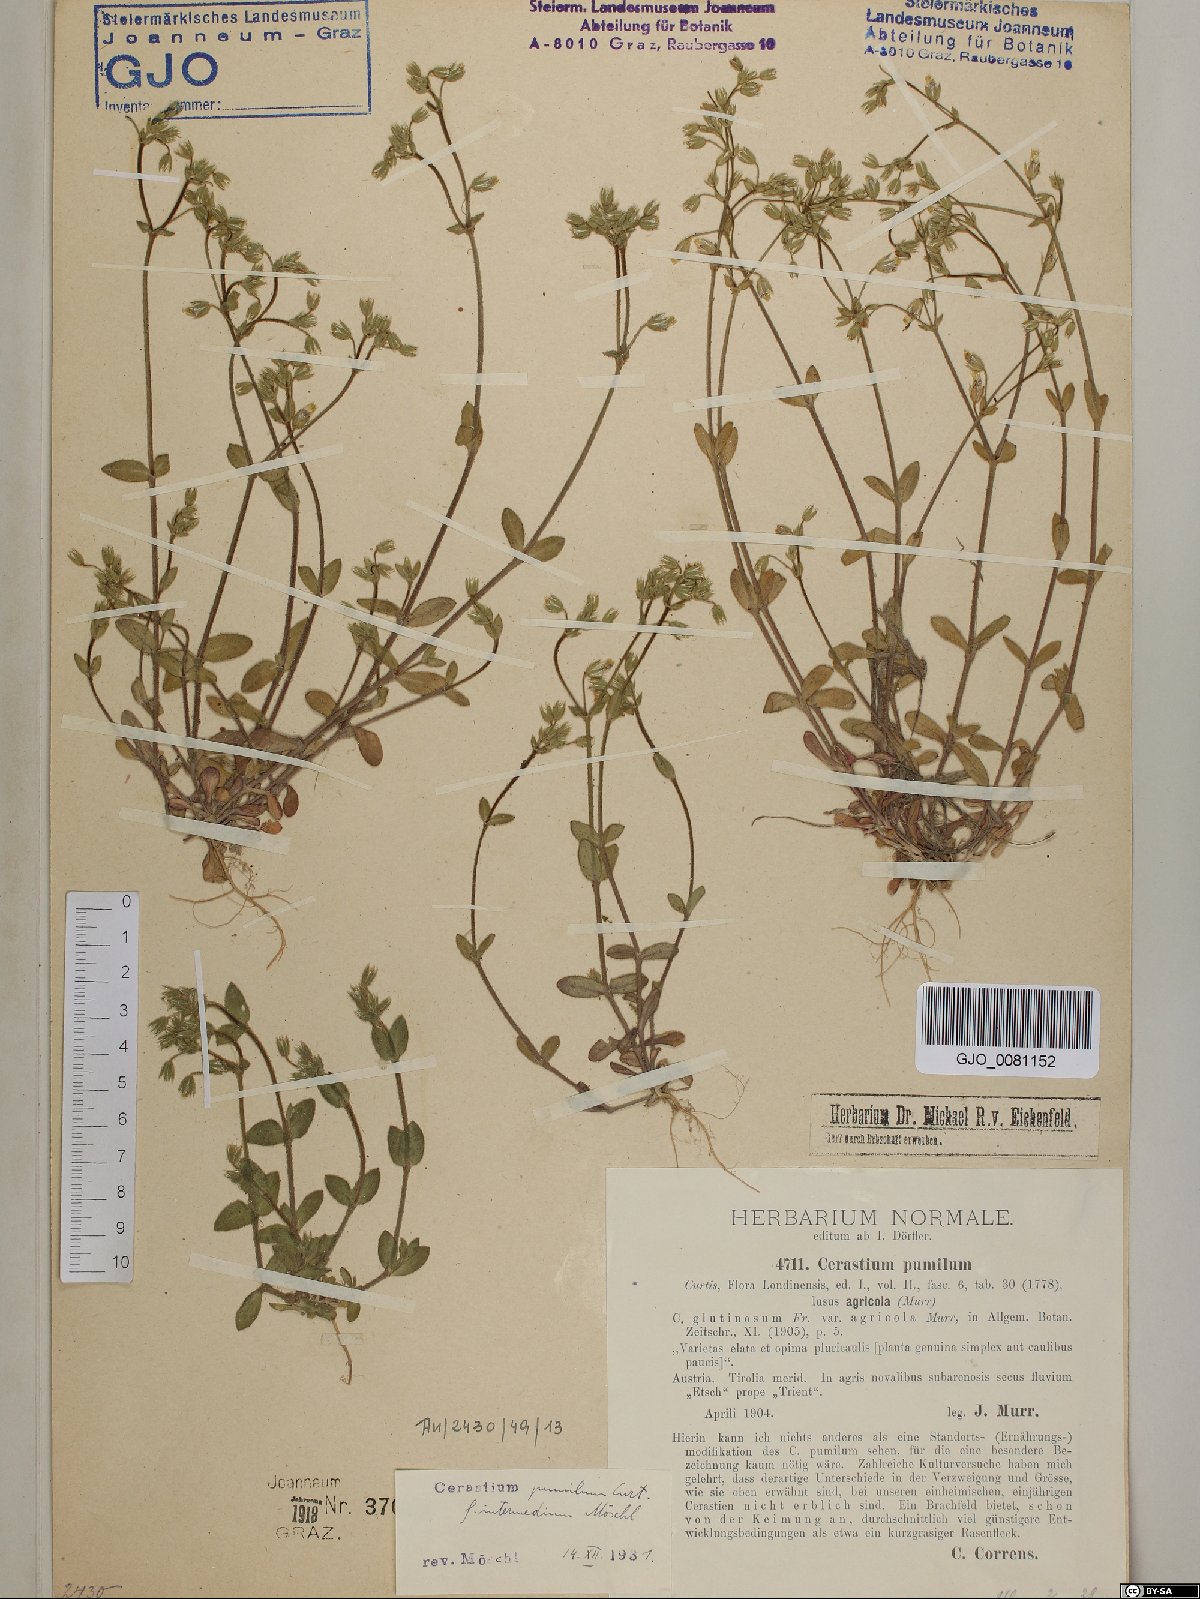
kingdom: Plantae
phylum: Tracheophyta
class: Magnoliopsida
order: Caryophyllales
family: Caryophyllaceae
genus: Cerastium
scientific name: Cerastium pumilum
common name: Dwarf mouse-ear
